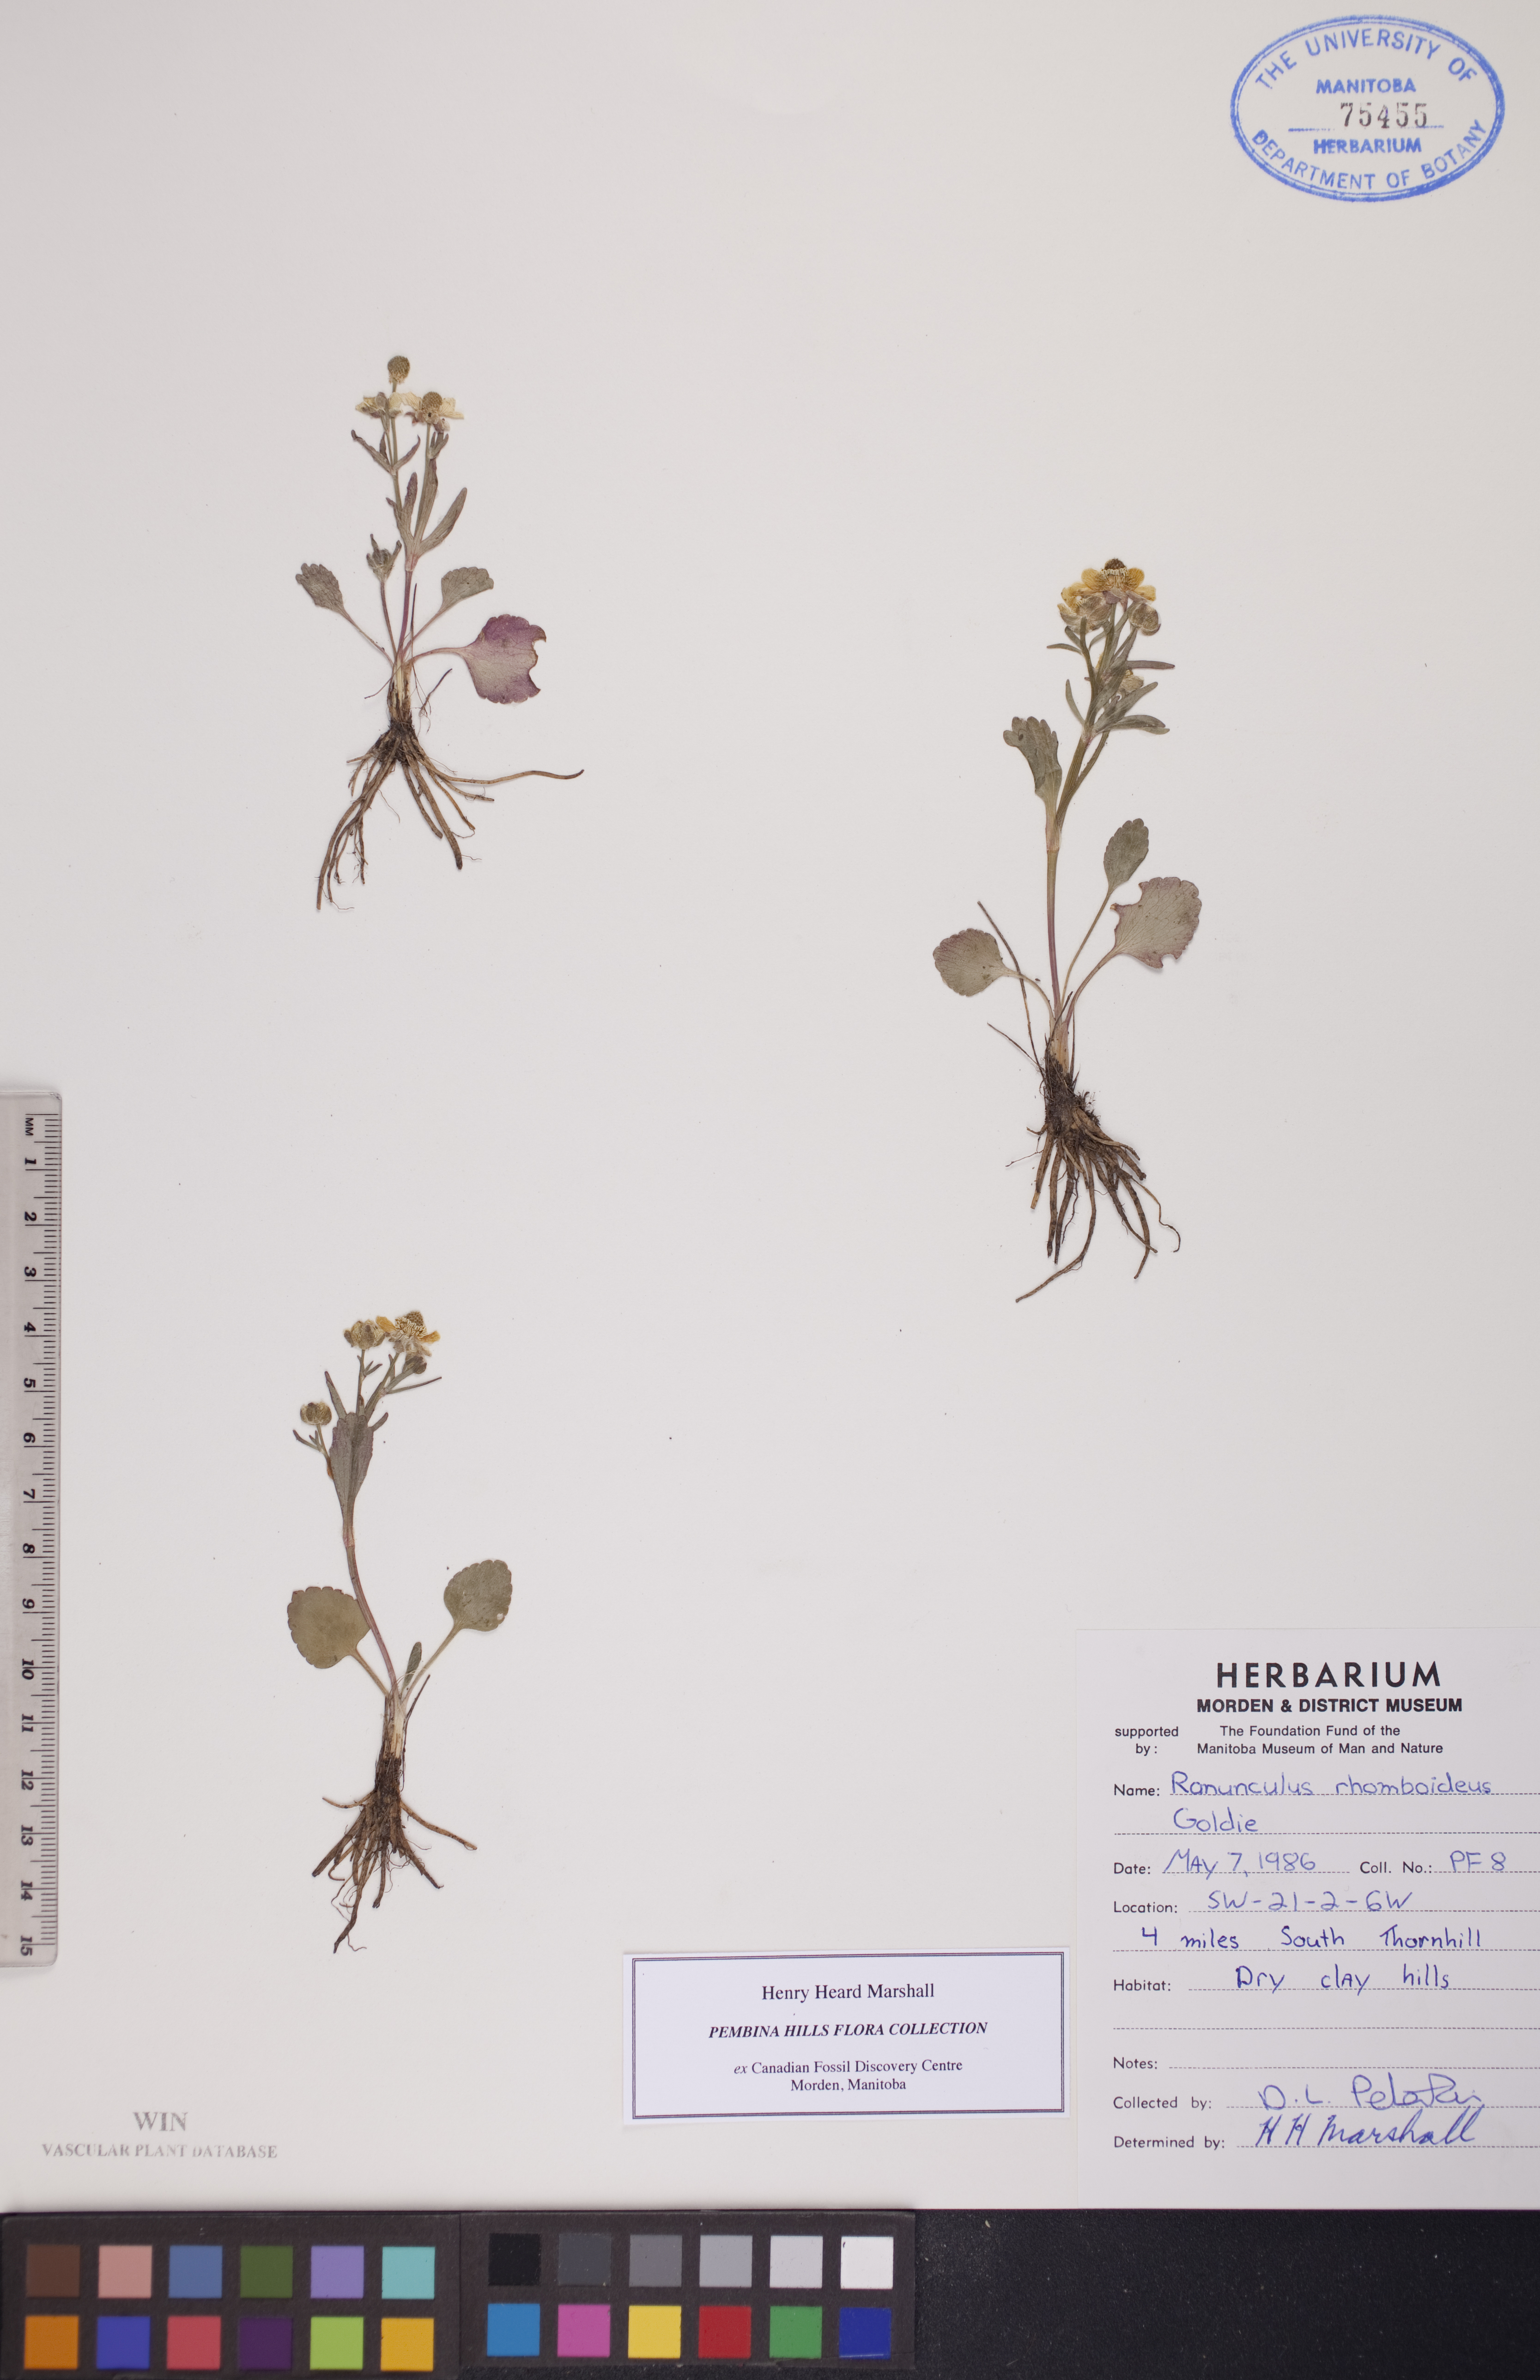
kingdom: Plantae
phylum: Tracheophyta
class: Magnoliopsida
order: Ranunculales
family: Ranunculaceae
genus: Ranunculus
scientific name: Ranunculus rhomboideus
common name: Prairie buttercup
